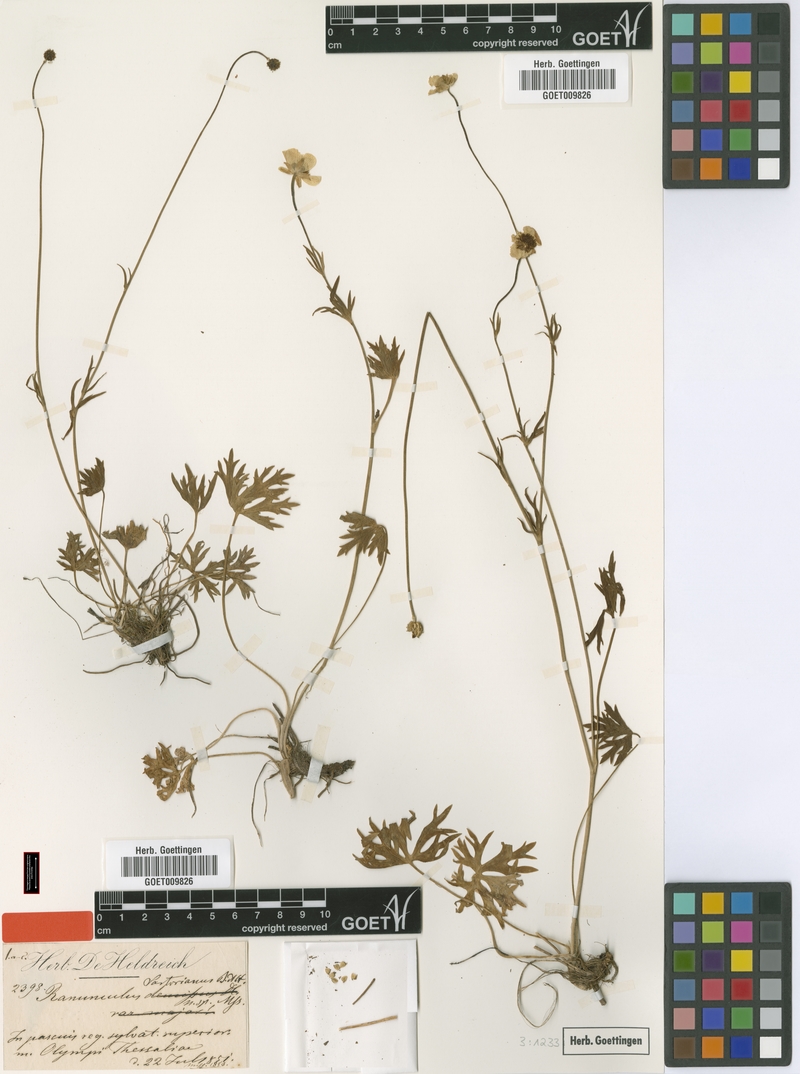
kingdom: Plantae
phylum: Tracheophyta
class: Magnoliopsida
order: Ranunculales
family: Ranunculaceae
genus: Ranunculus
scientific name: Ranunculus sartorianus
